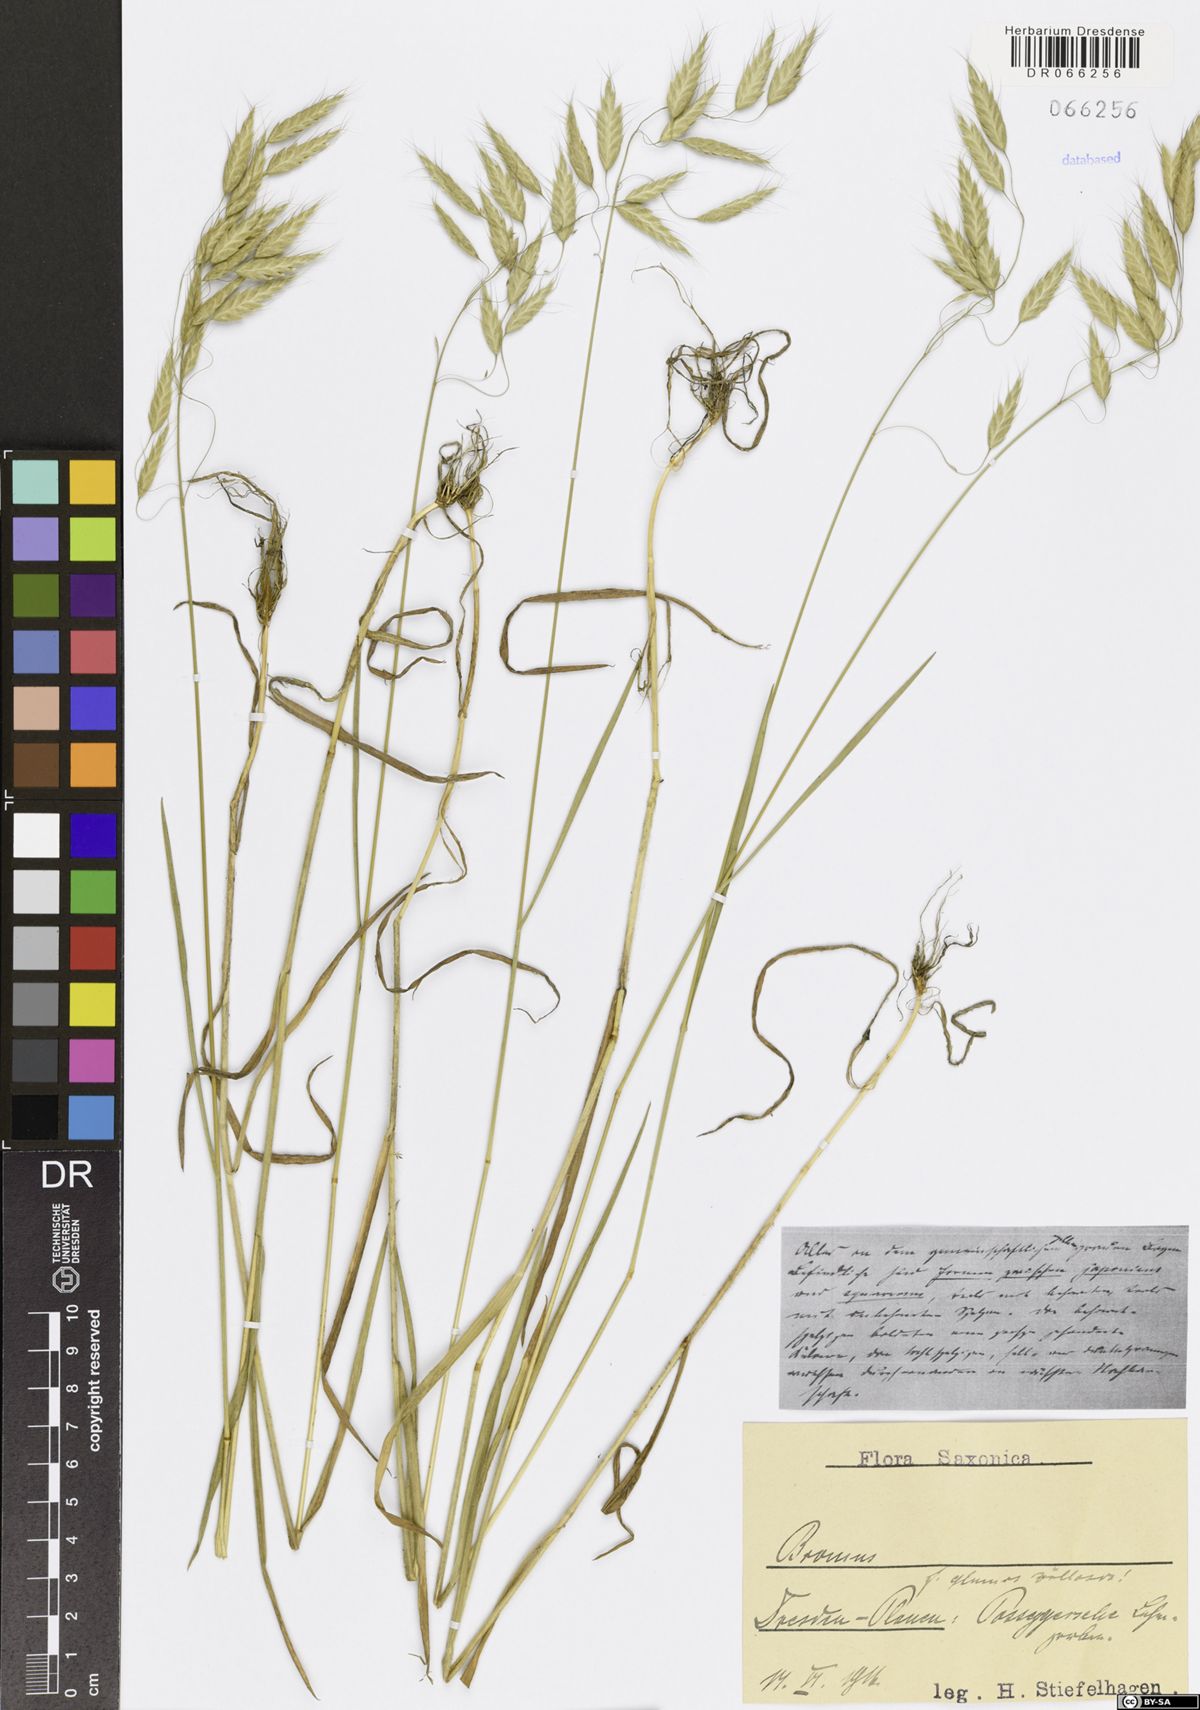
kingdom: Plantae
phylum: Tracheophyta
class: Liliopsida
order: Poales
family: Poaceae
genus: Bromus
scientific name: Bromus
